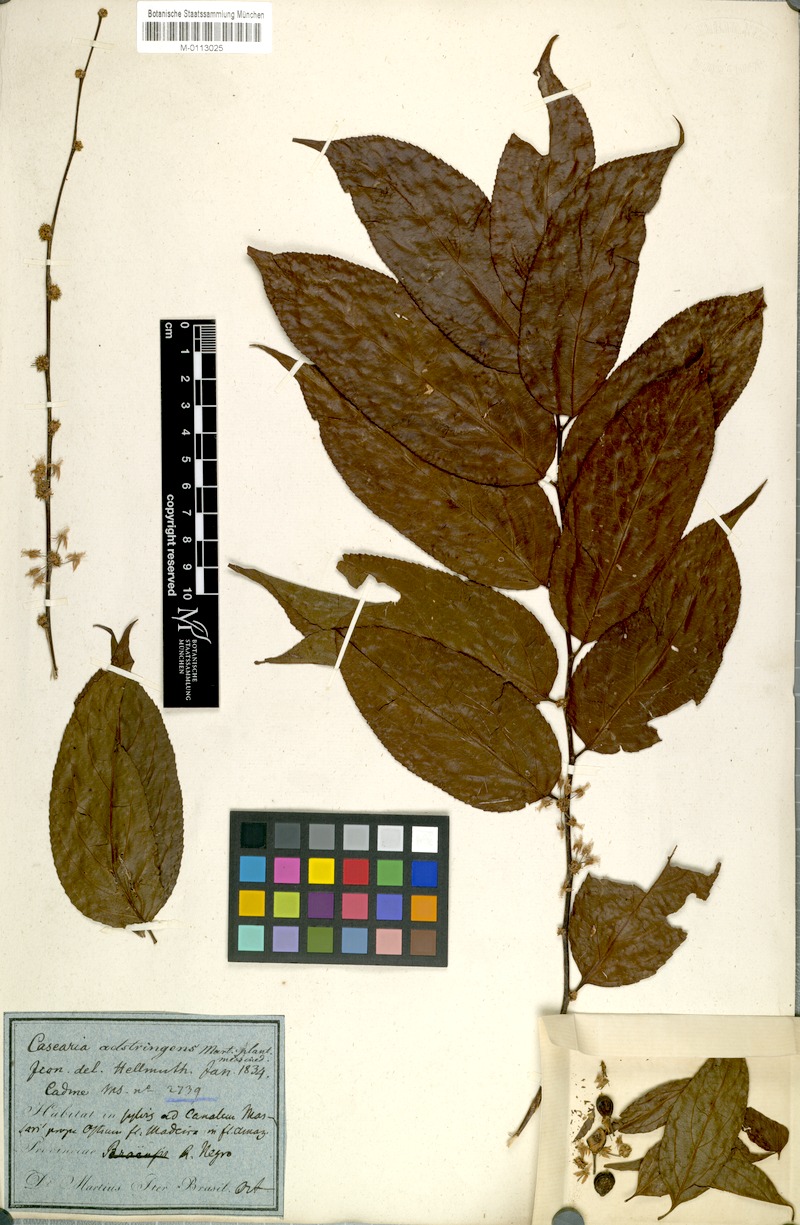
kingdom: Plantae
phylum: Tracheophyta
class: Magnoliopsida
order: Malpighiales
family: Salicaceae
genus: Casearia
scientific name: Casearia decandra
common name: Crack open
